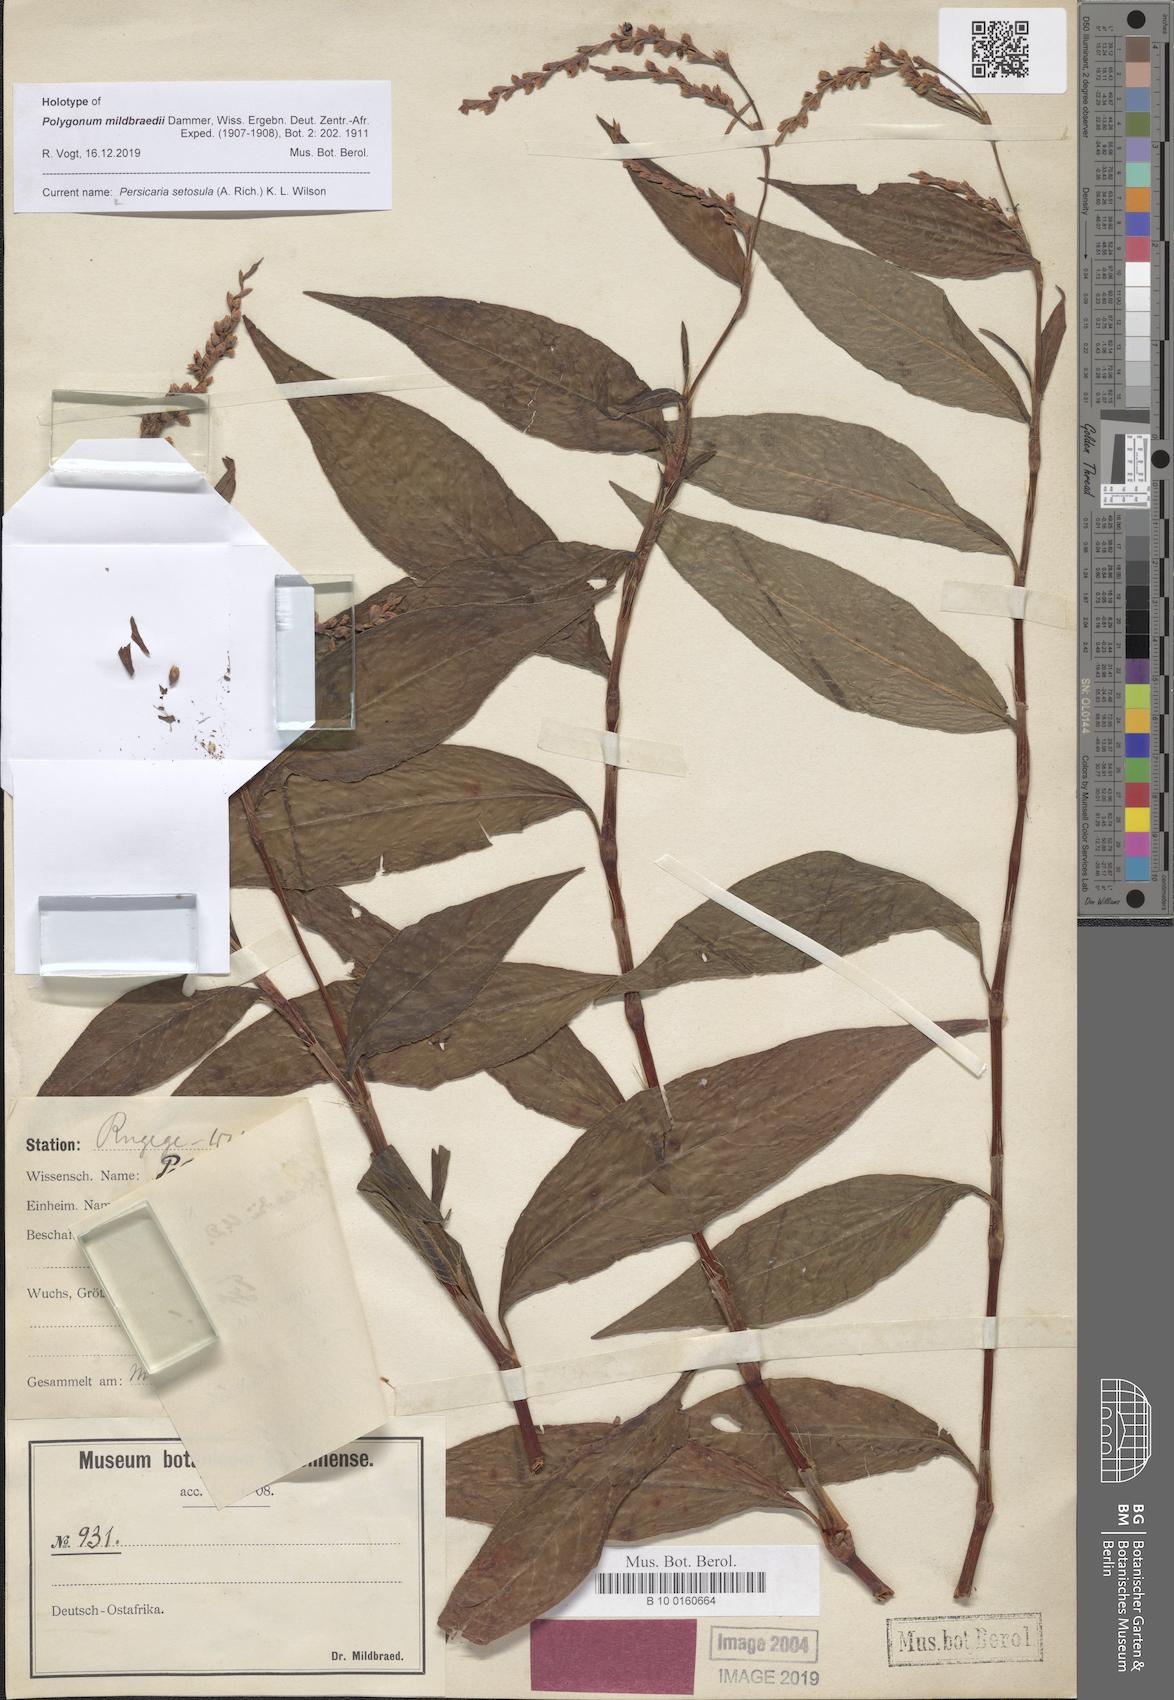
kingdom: Plantae
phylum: Tracheophyta
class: Magnoliopsida
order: Caryophyllales
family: Polygonaceae
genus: Persicaria
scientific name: Persicaria setosula
